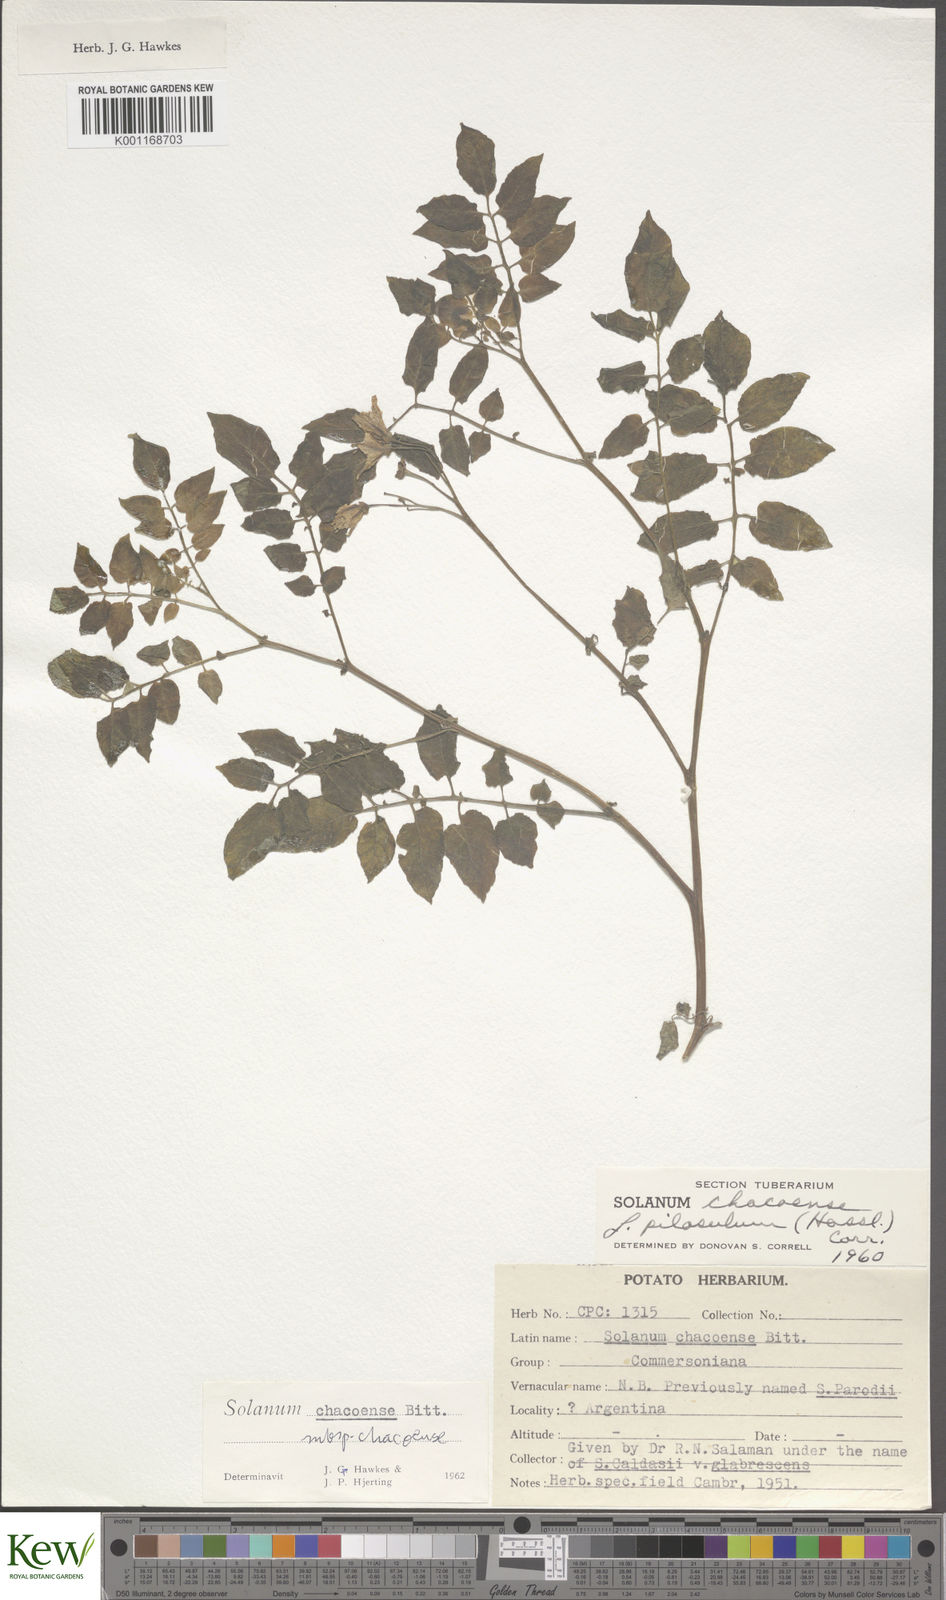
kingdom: Plantae
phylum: Tracheophyta
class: Magnoliopsida
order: Solanales
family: Solanaceae
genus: Solanum
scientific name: Solanum chacoense
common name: Chaco potato
